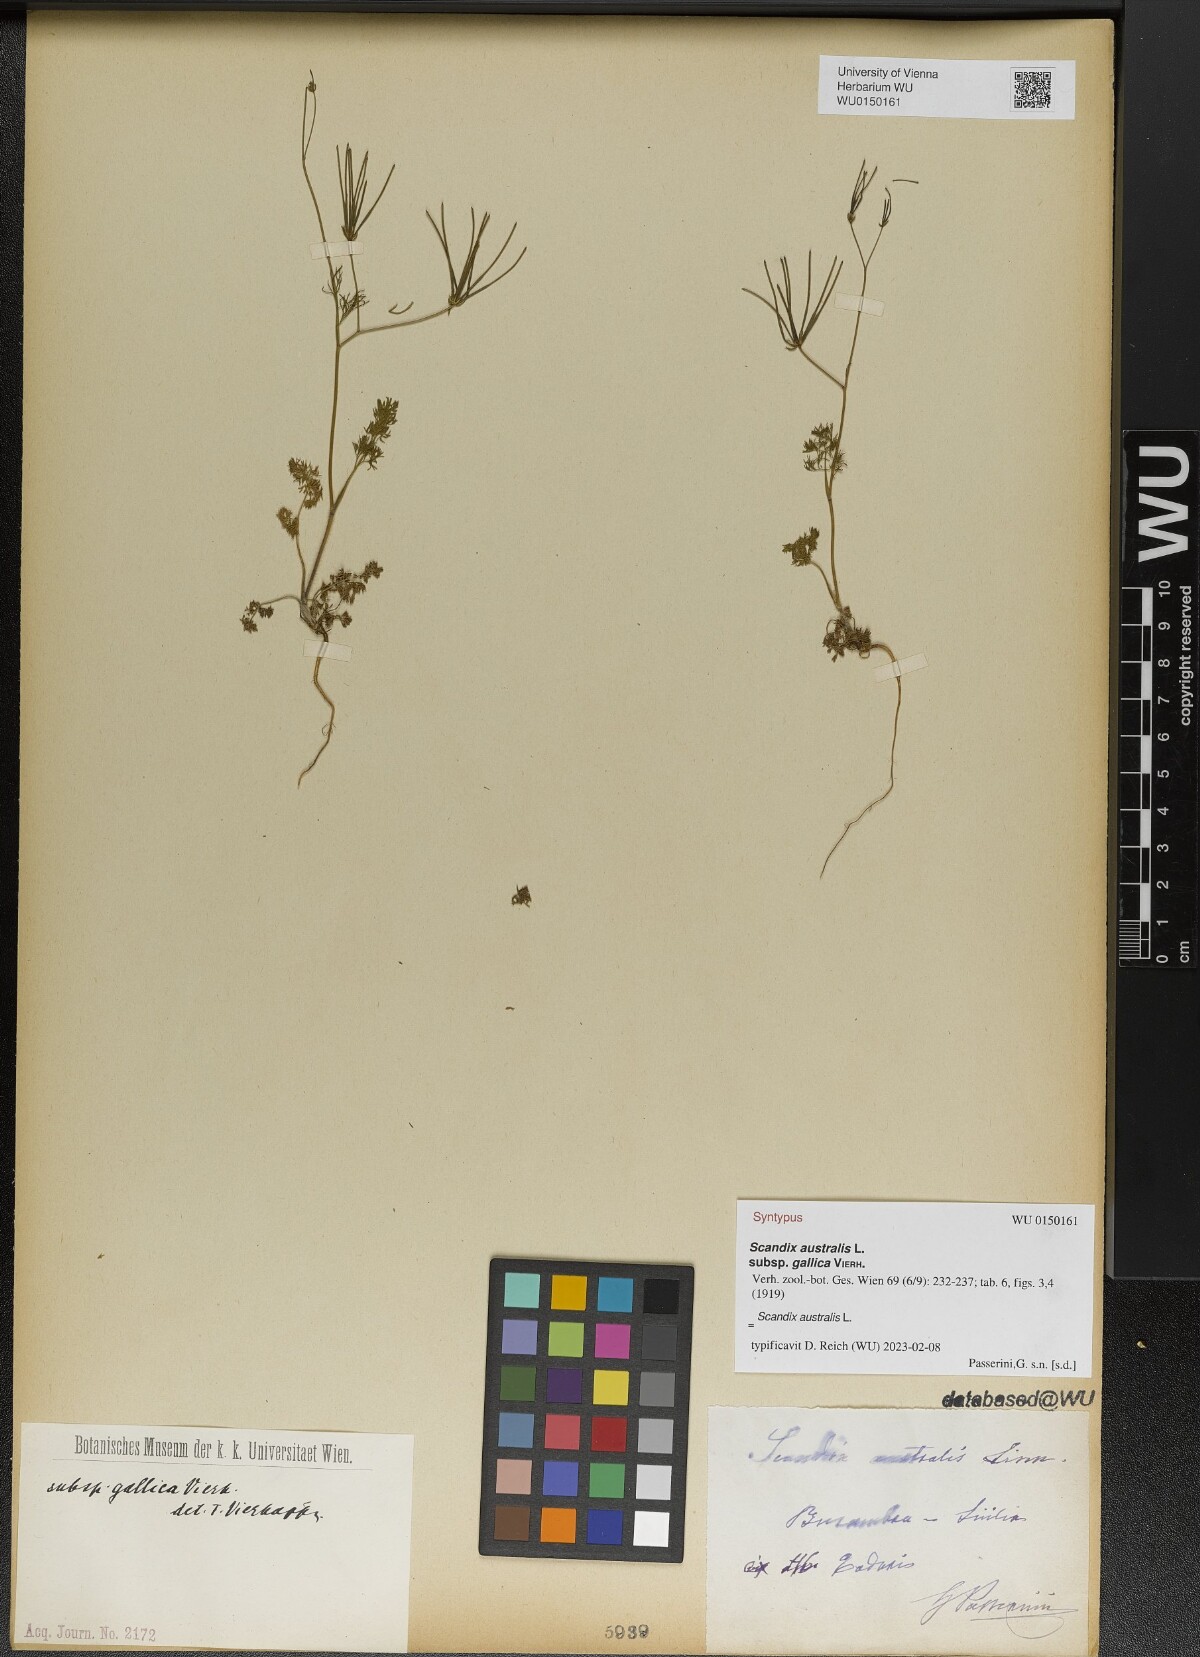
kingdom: Plantae
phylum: Tracheophyta
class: Magnoliopsida
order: Apiales
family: Apiaceae
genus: Scandix
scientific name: Scandix australis
